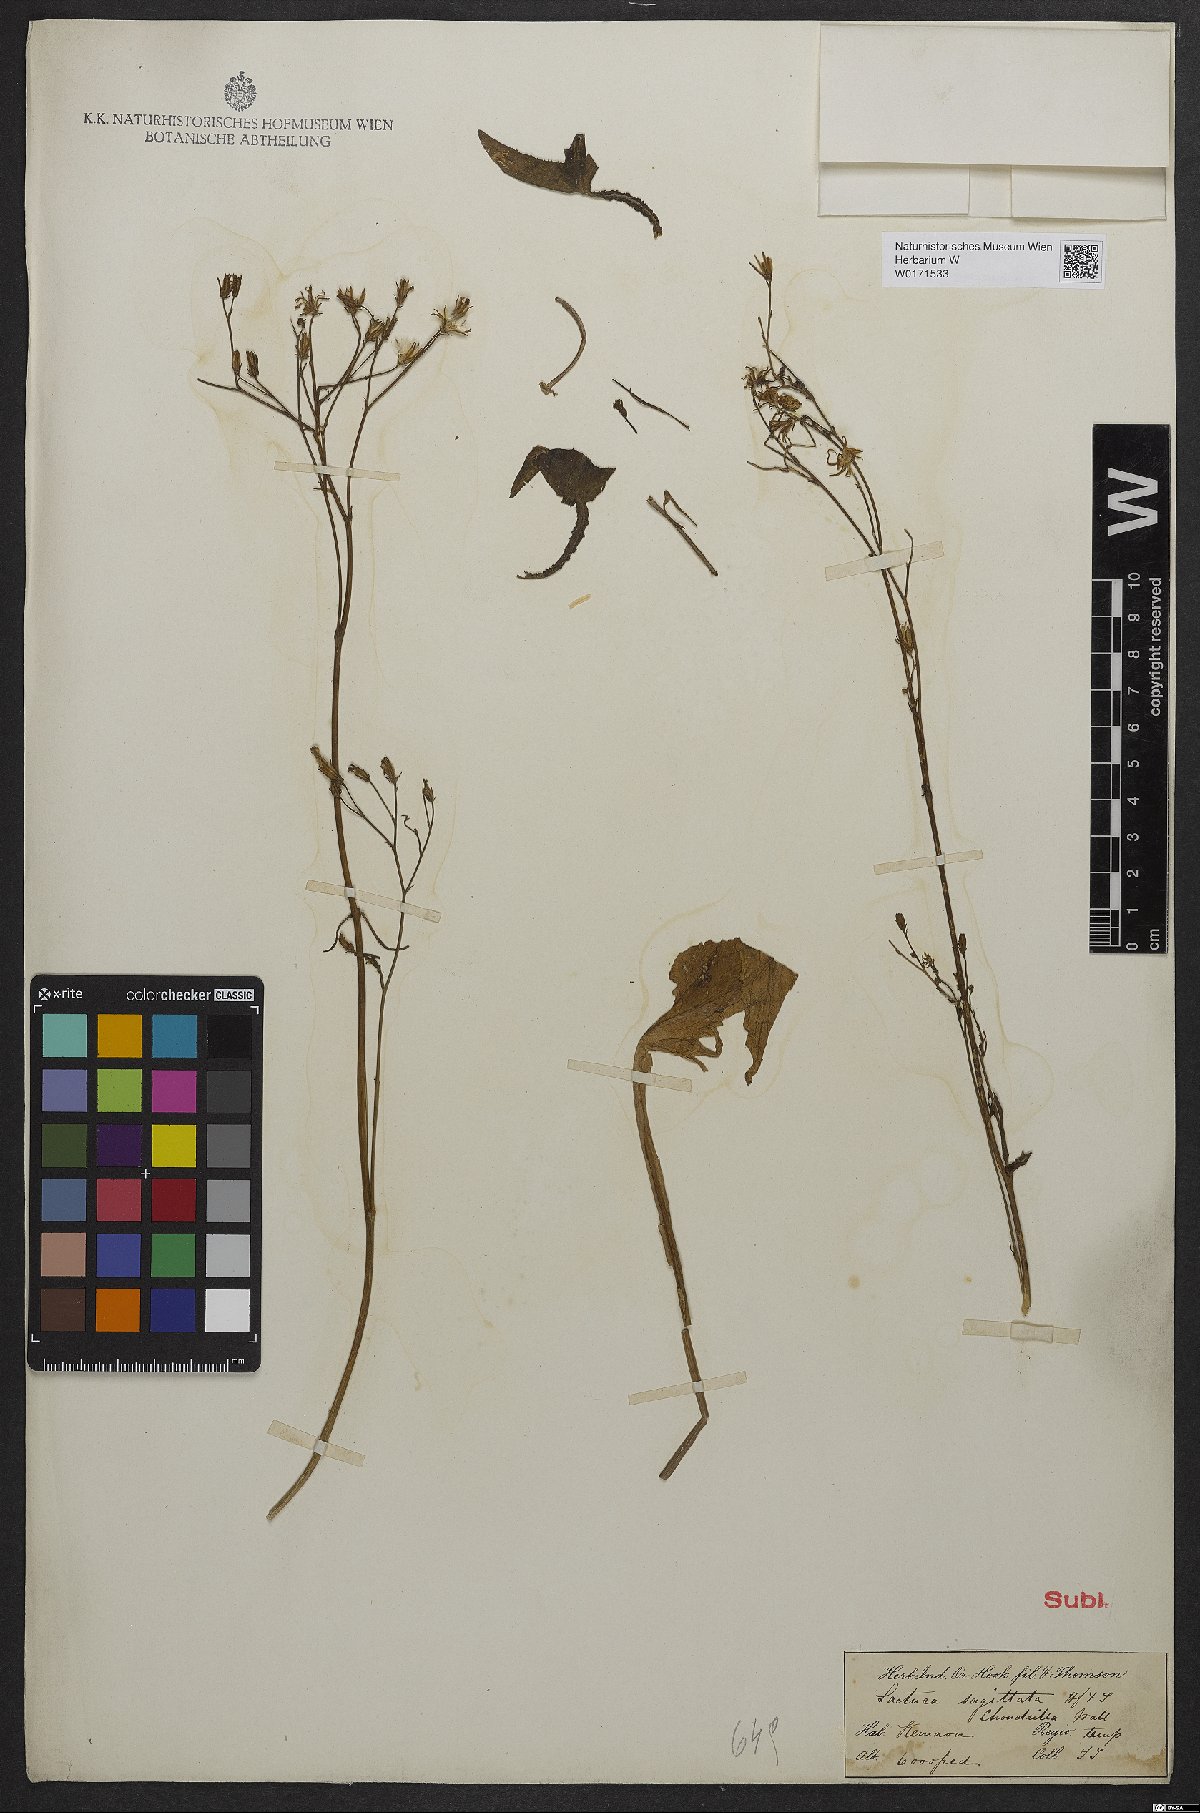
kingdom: Plantae
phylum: Tracheophyta
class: Magnoliopsida
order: Asterales
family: Asteraceae
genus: Ixeridium
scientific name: Ixeridium sagittarioides
